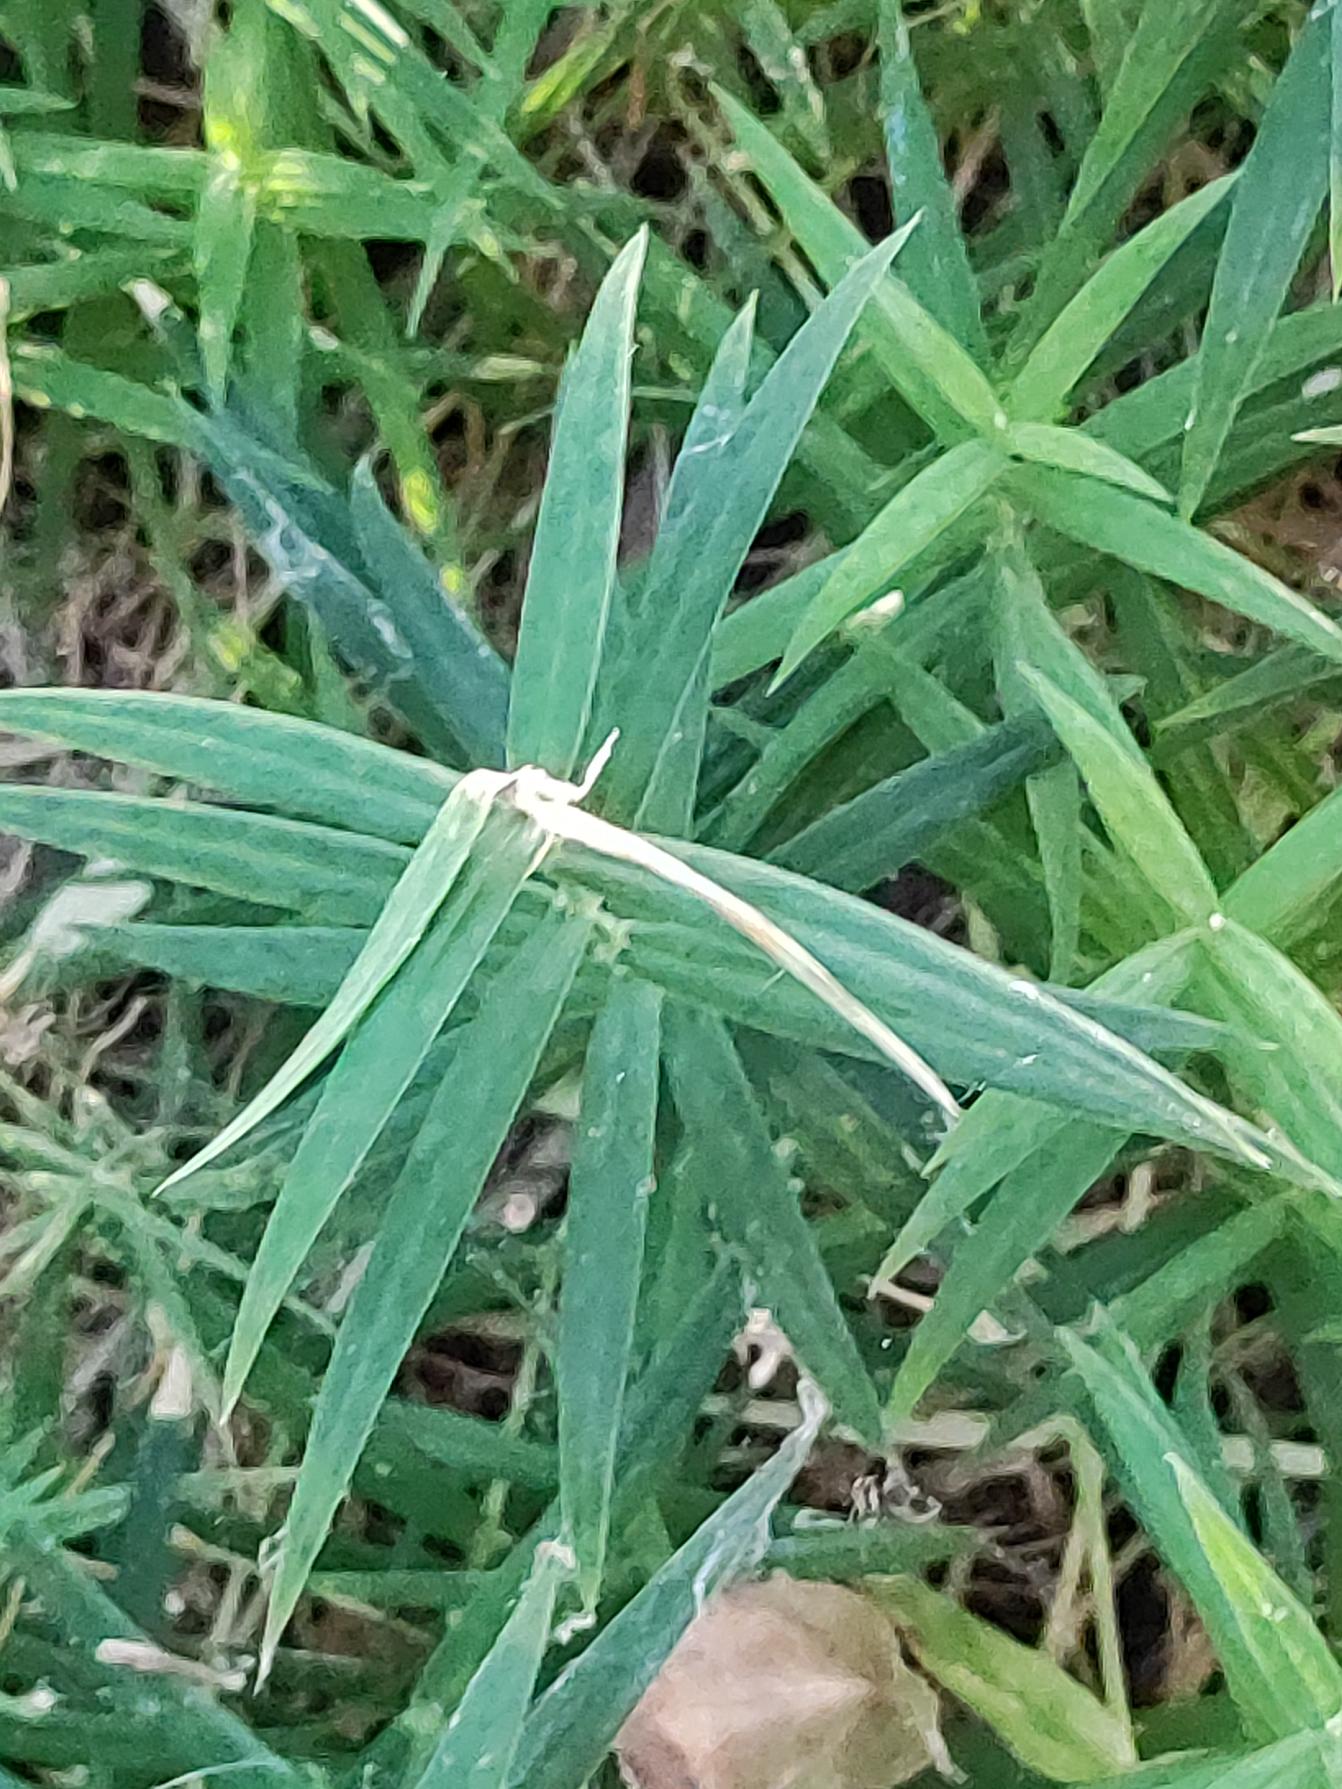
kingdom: Plantae
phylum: Tracheophyta
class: Magnoliopsida
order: Caryophyllales
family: Caryophyllaceae
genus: Rabelera
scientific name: Rabelera holostea
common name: Stor fladstjerne
